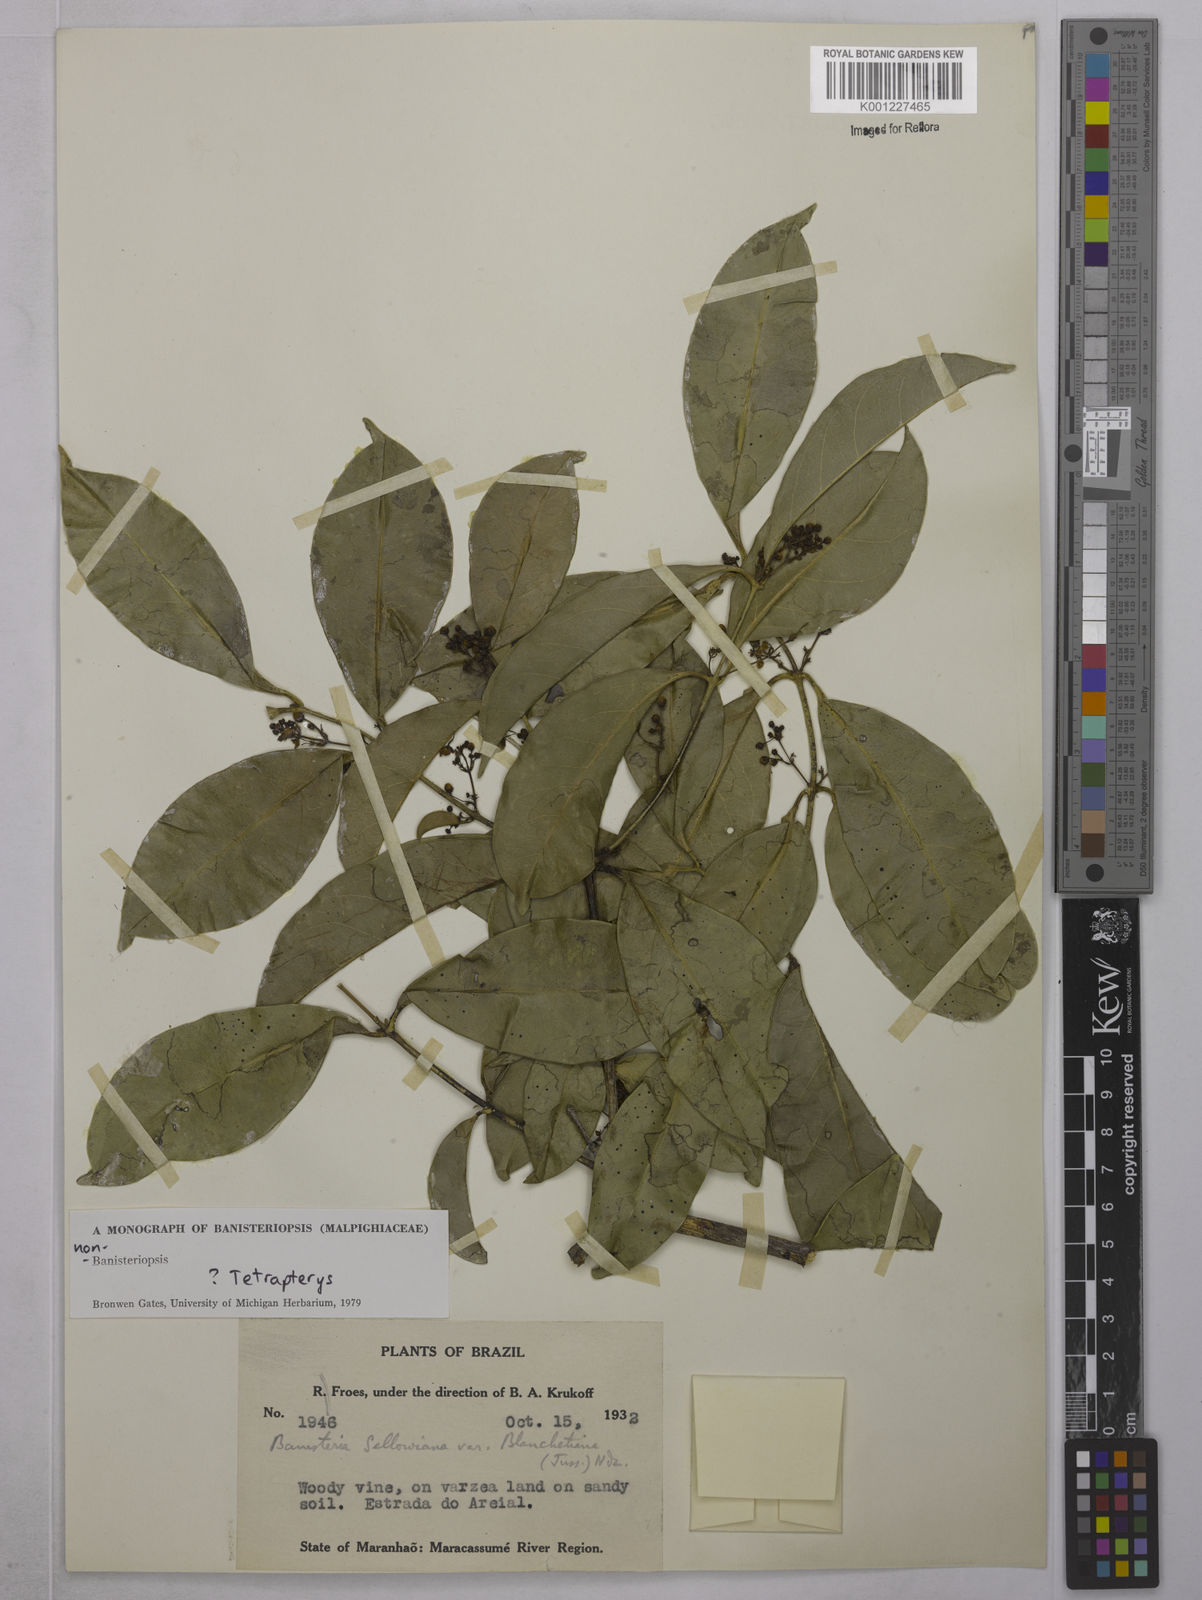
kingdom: Plantae
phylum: Tracheophyta
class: Magnoliopsida
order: Malpighiales
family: Malpighiaceae
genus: Tetrapterys
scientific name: Tetrapterys
